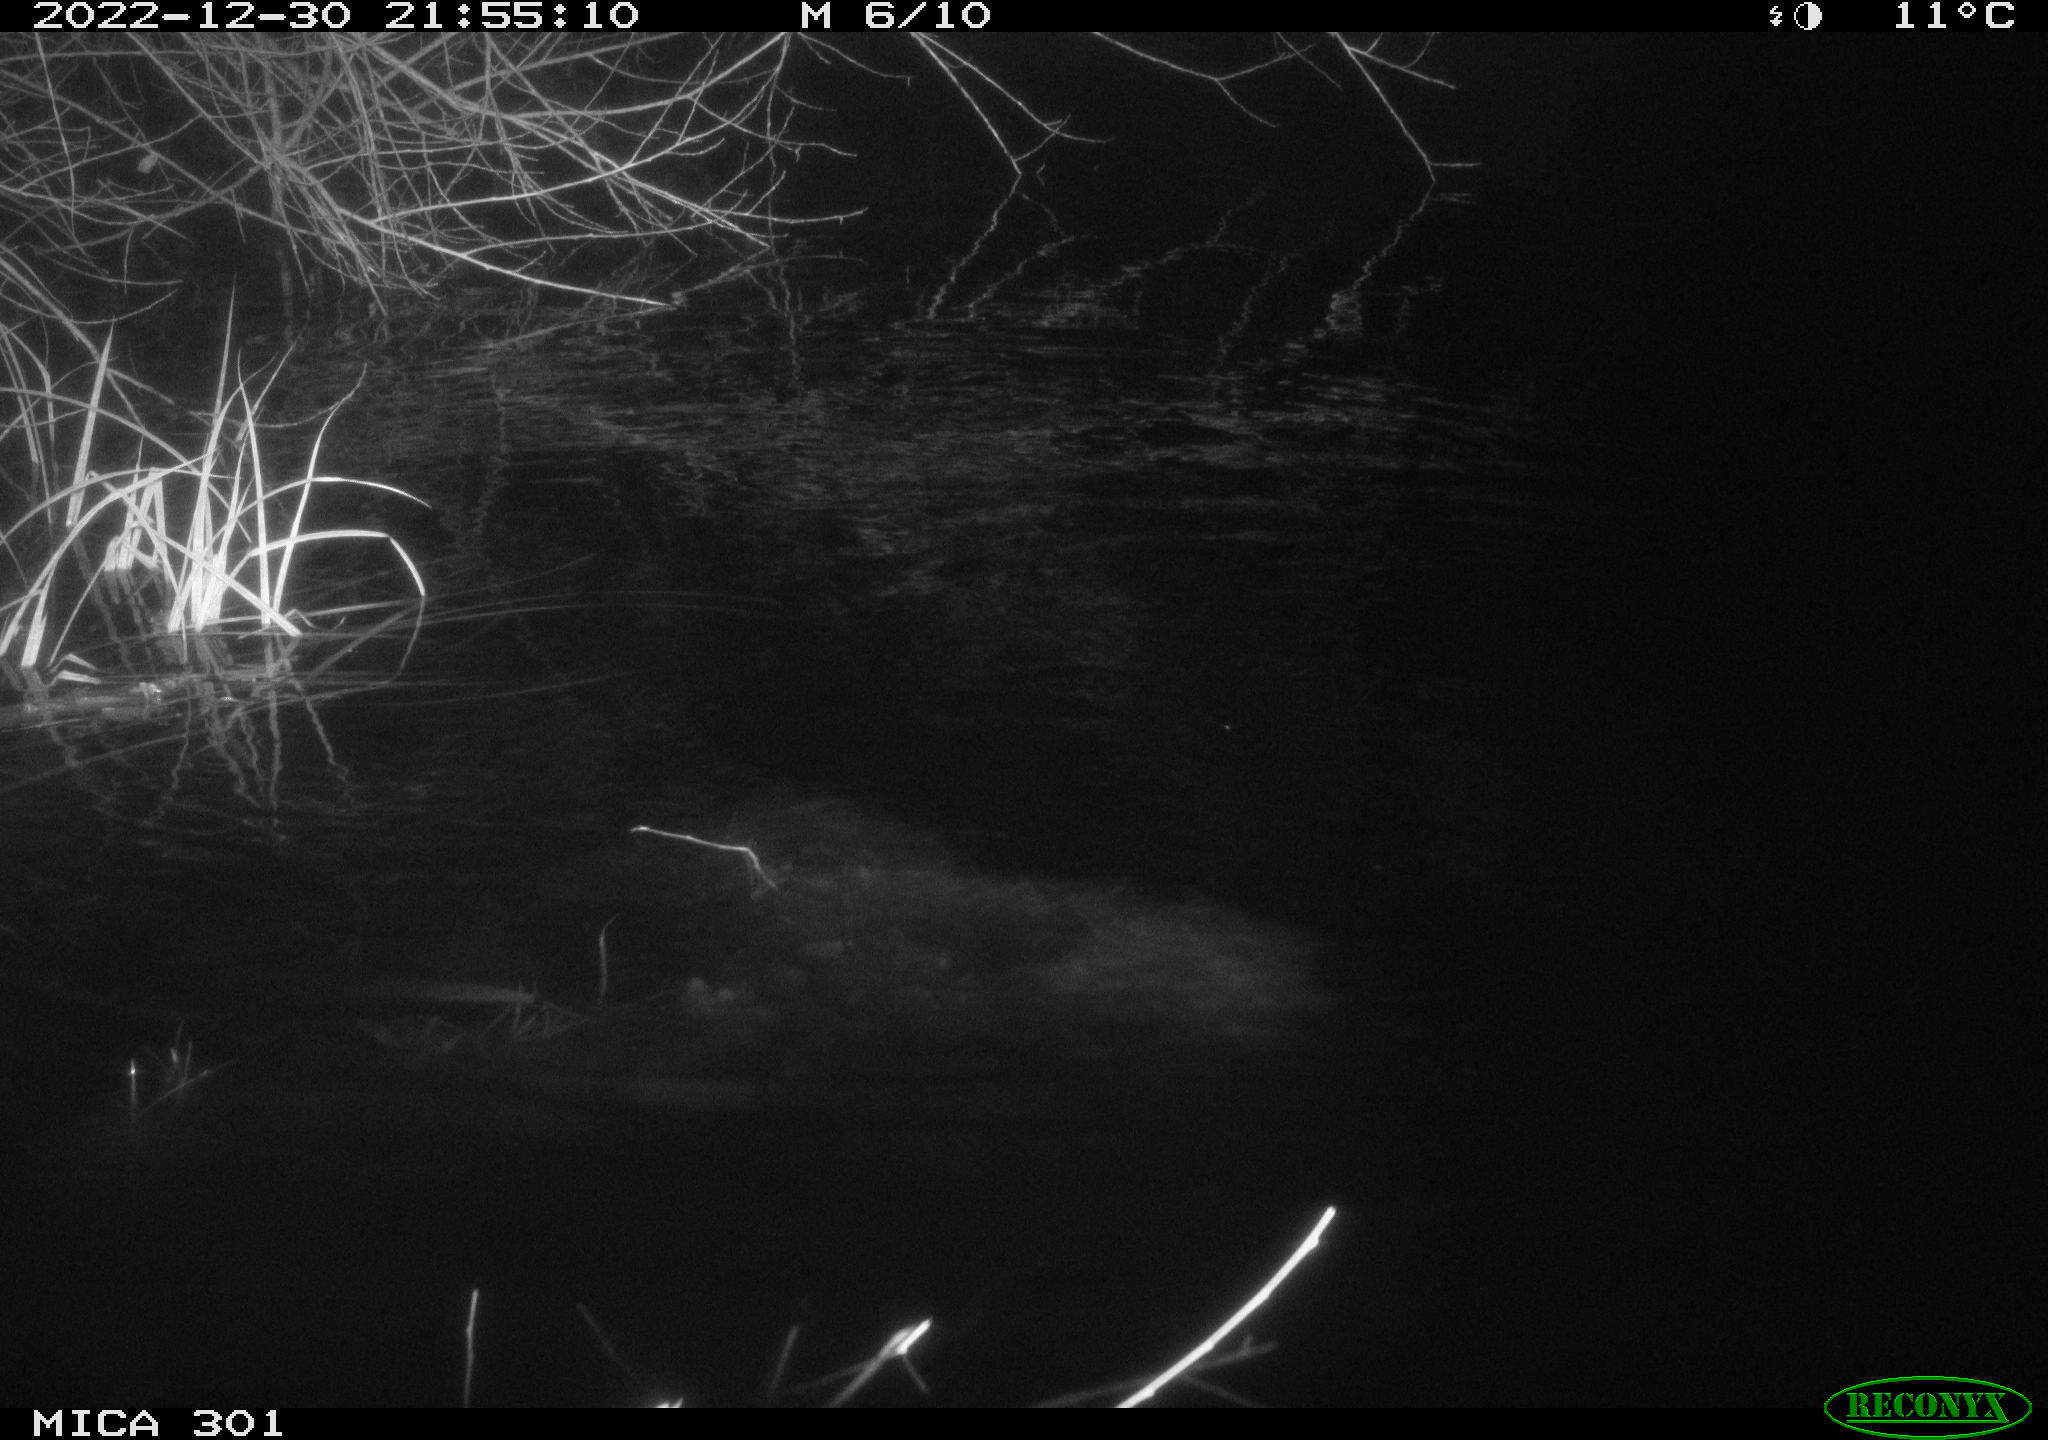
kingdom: Animalia
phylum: Chordata
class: Mammalia
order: Rodentia
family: Castoridae
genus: Castor
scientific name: Castor fiber
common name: Eurasian beaver
